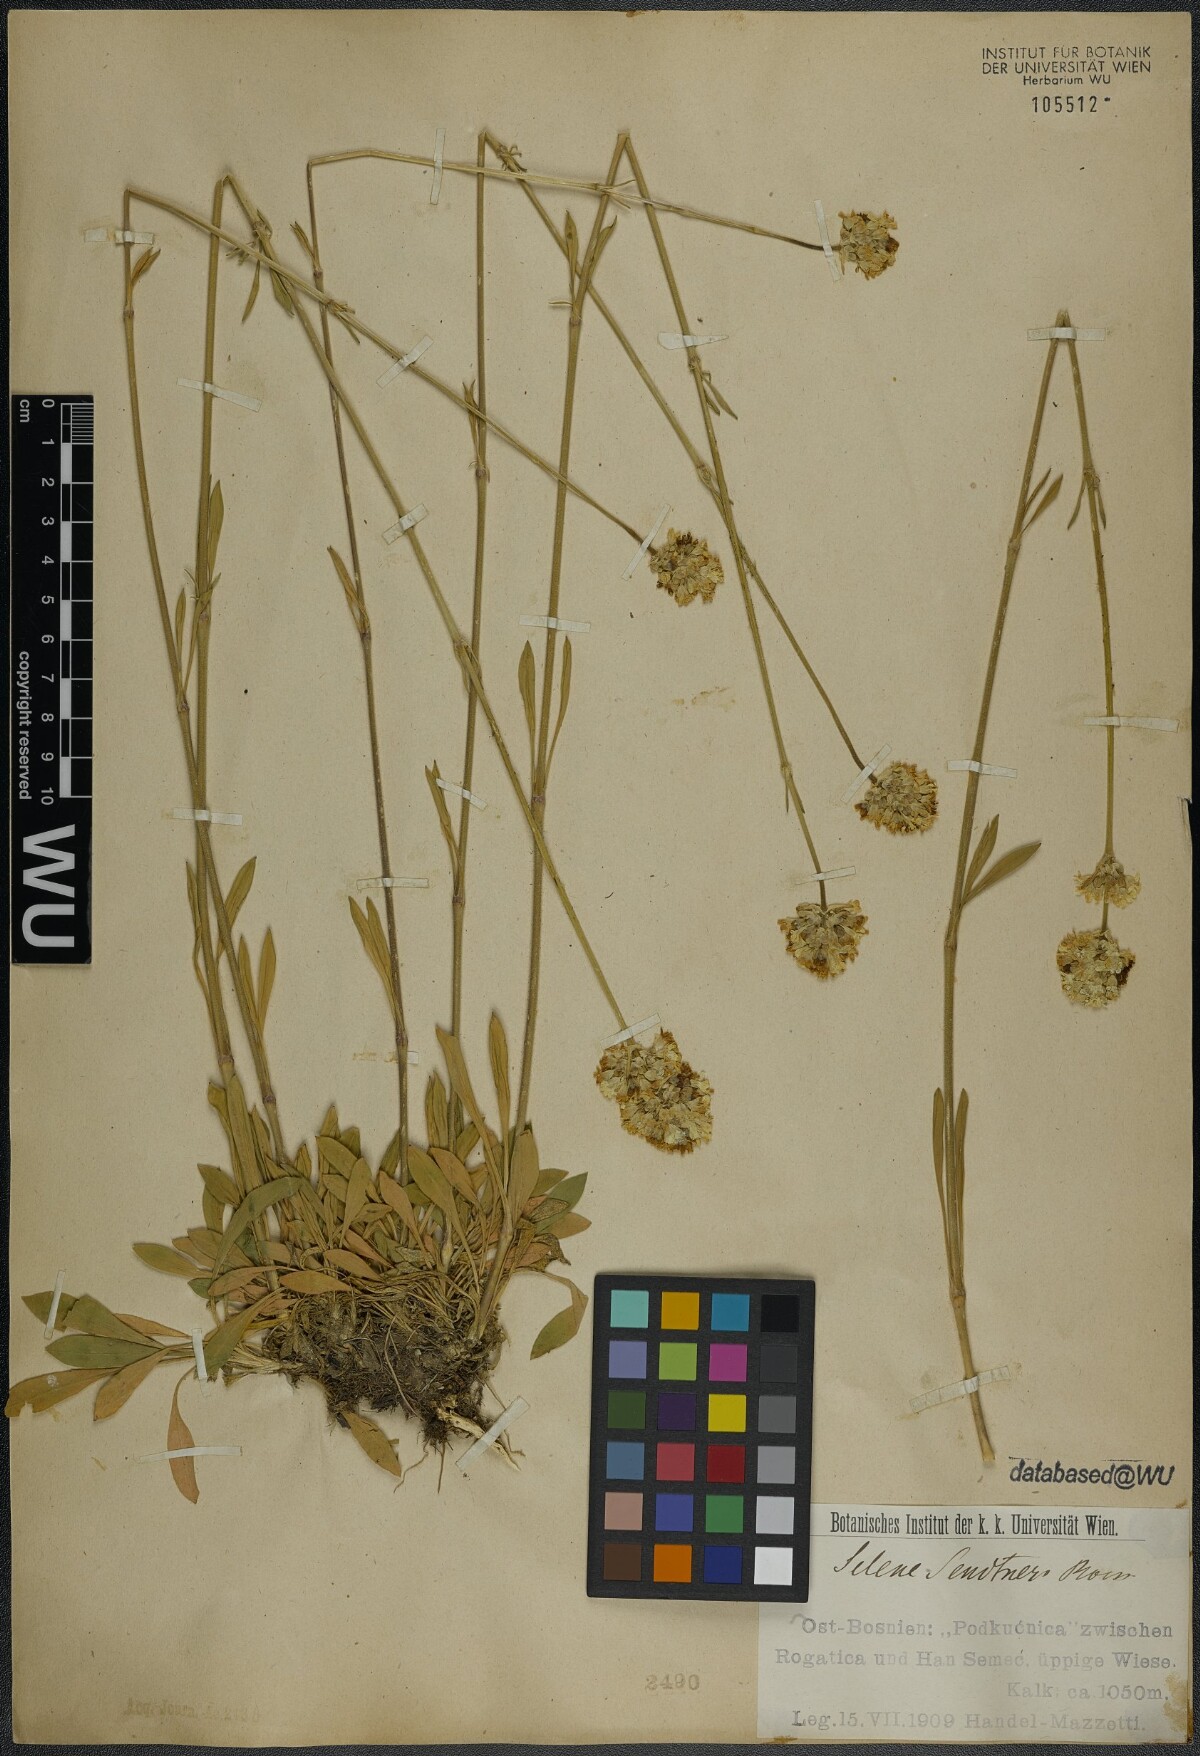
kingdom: Plantae
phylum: Tracheophyta
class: Magnoliopsida
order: Caryophyllales
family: Caryophyllaceae
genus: Silene
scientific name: Silene sendtneri
